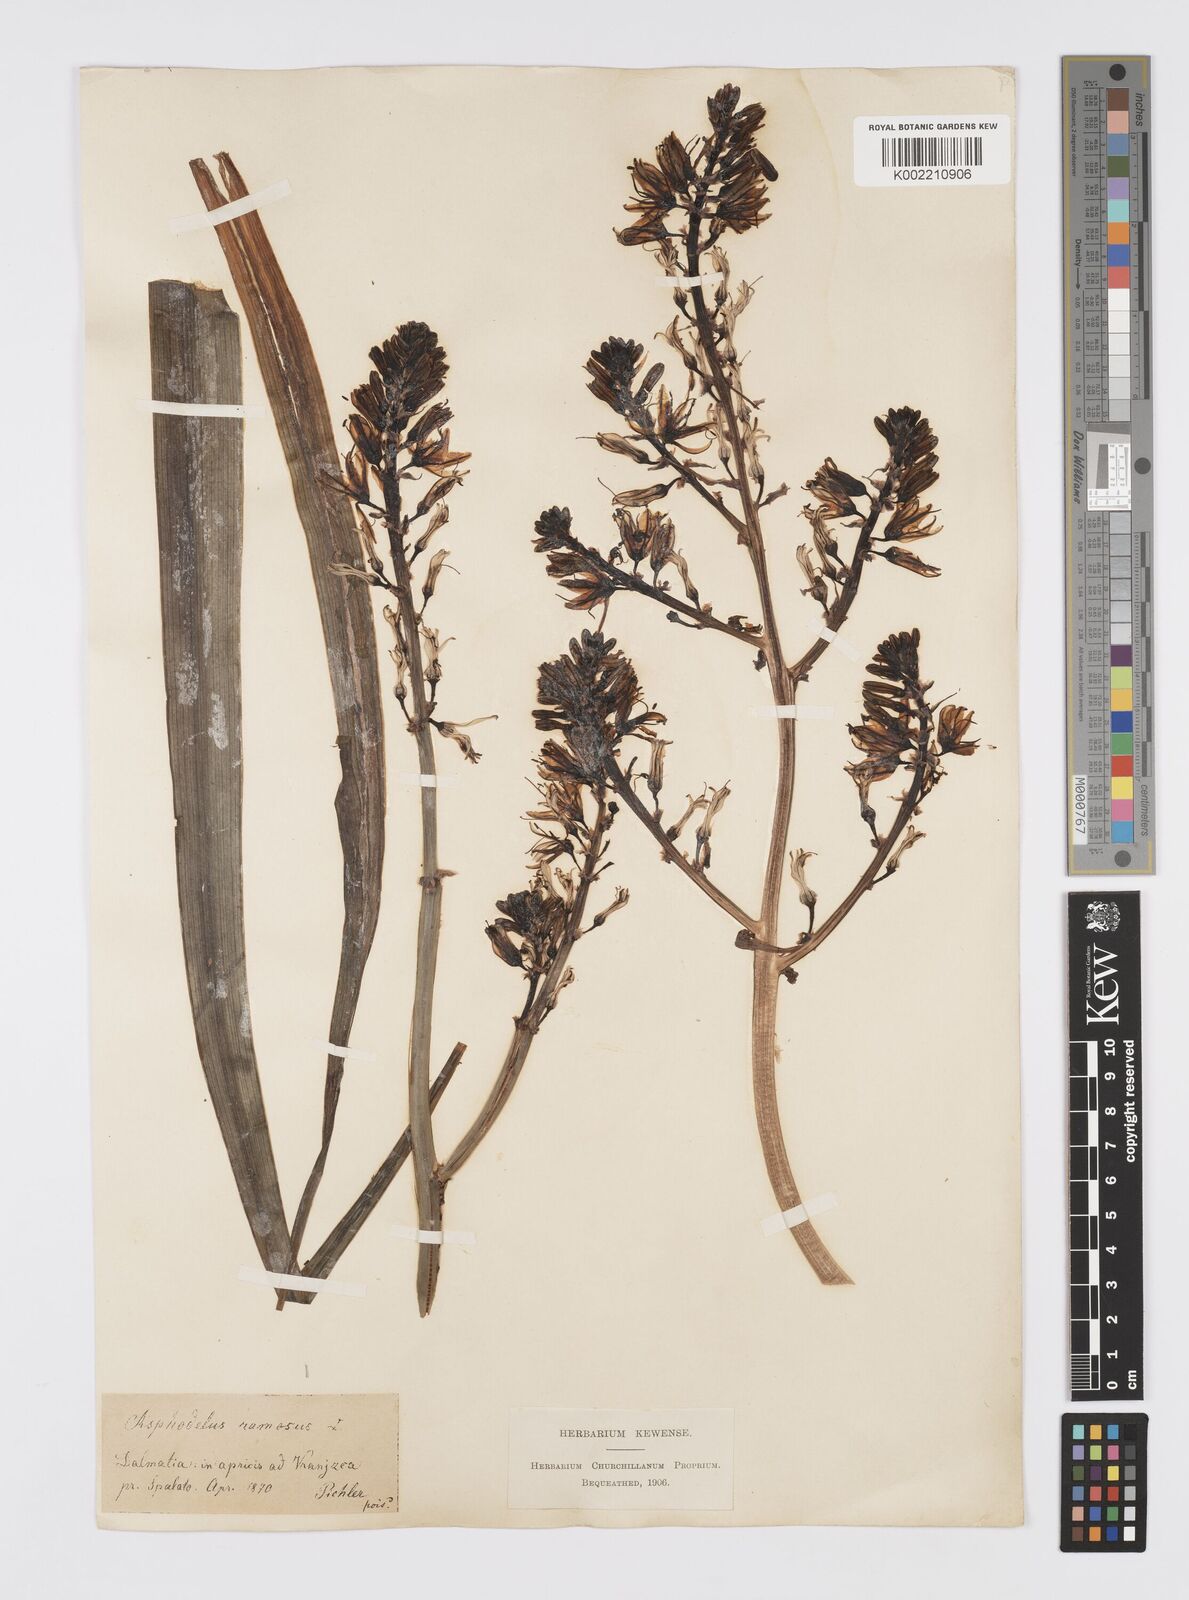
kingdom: Plantae
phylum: Tracheophyta
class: Liliopsida
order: Asparagales
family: Asphodelaceae
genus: Asphodelus
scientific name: Asphodelus ramosus
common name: Silverrod
